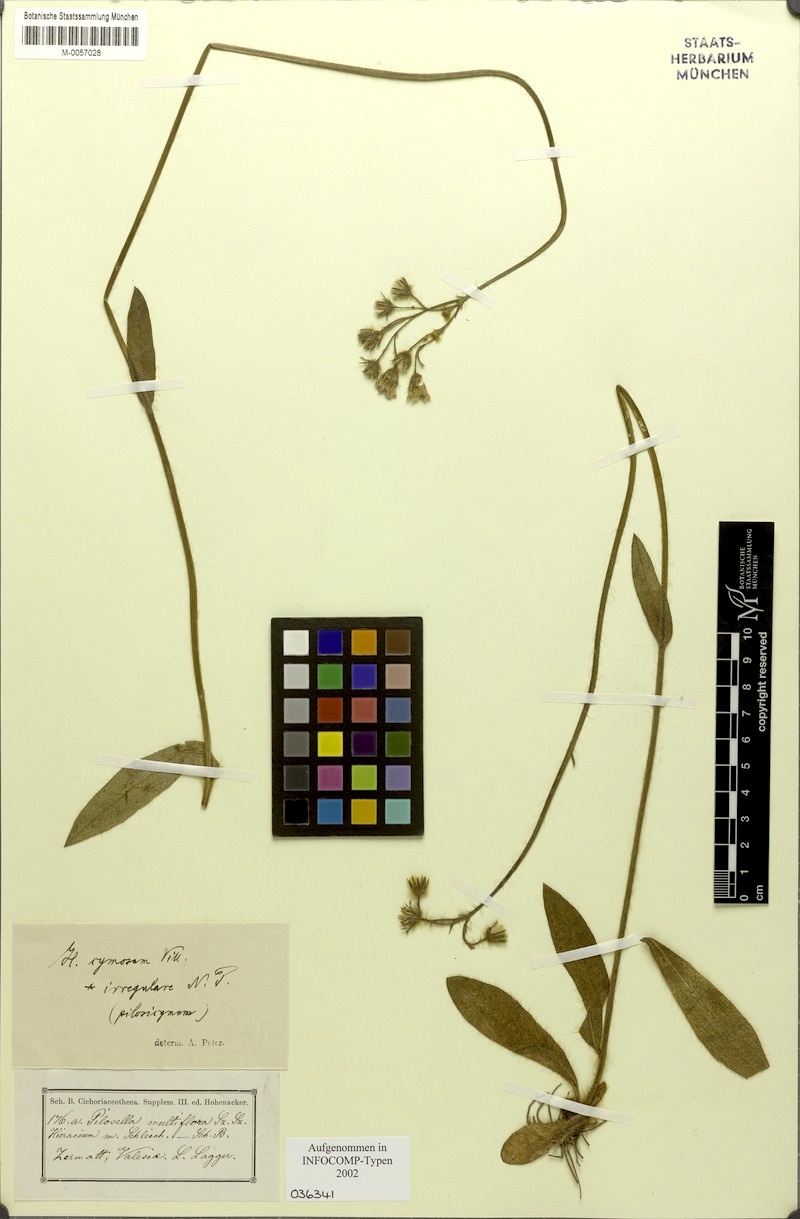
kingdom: Plantae
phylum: Tracheophyta
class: Magnoliopsida
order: Asterales
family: Asteraceae
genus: Pilosella
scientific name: Pilosella cymosa
